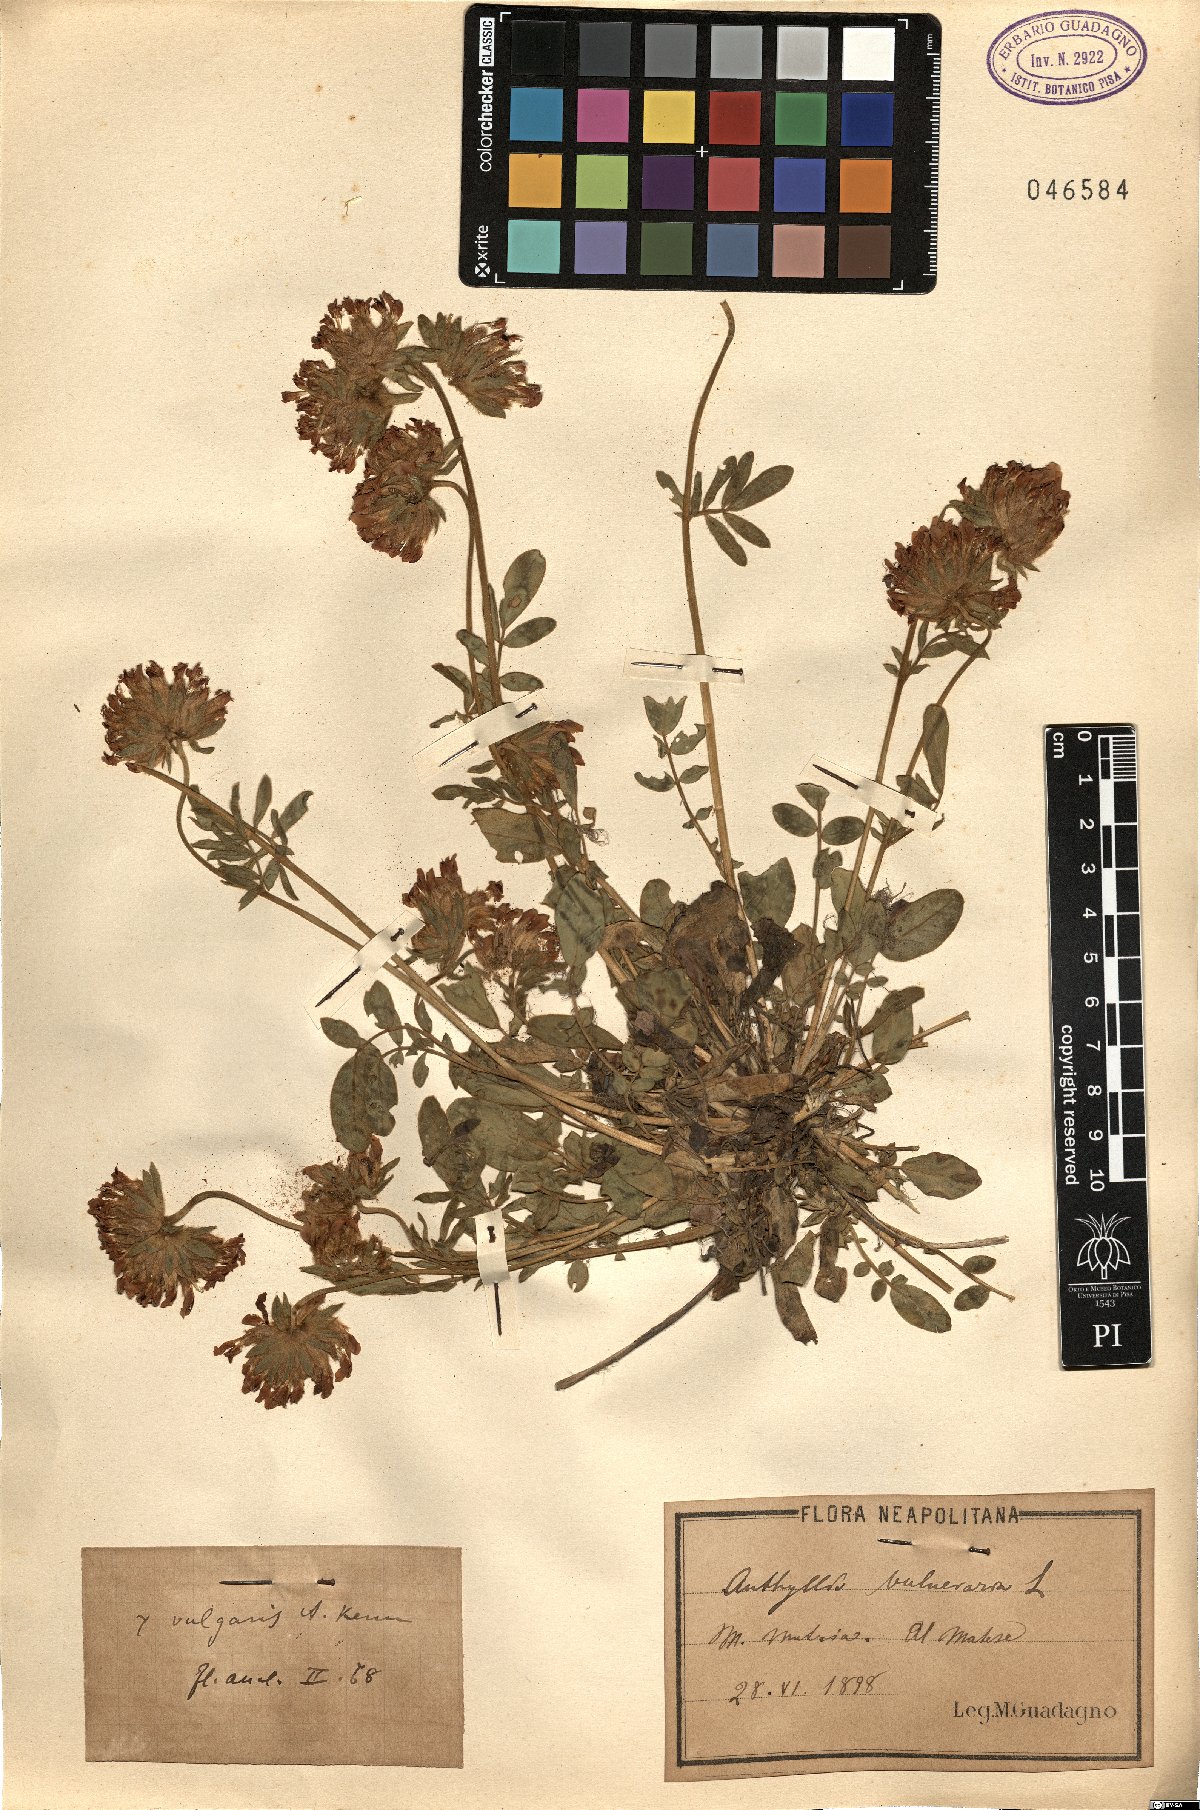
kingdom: Plantae
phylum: Tracheophyta
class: Magnoliopsida
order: Fabales
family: Fabaceae
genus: Anthyllis
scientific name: Anthyllis vulneraria
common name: Kidney vetch
